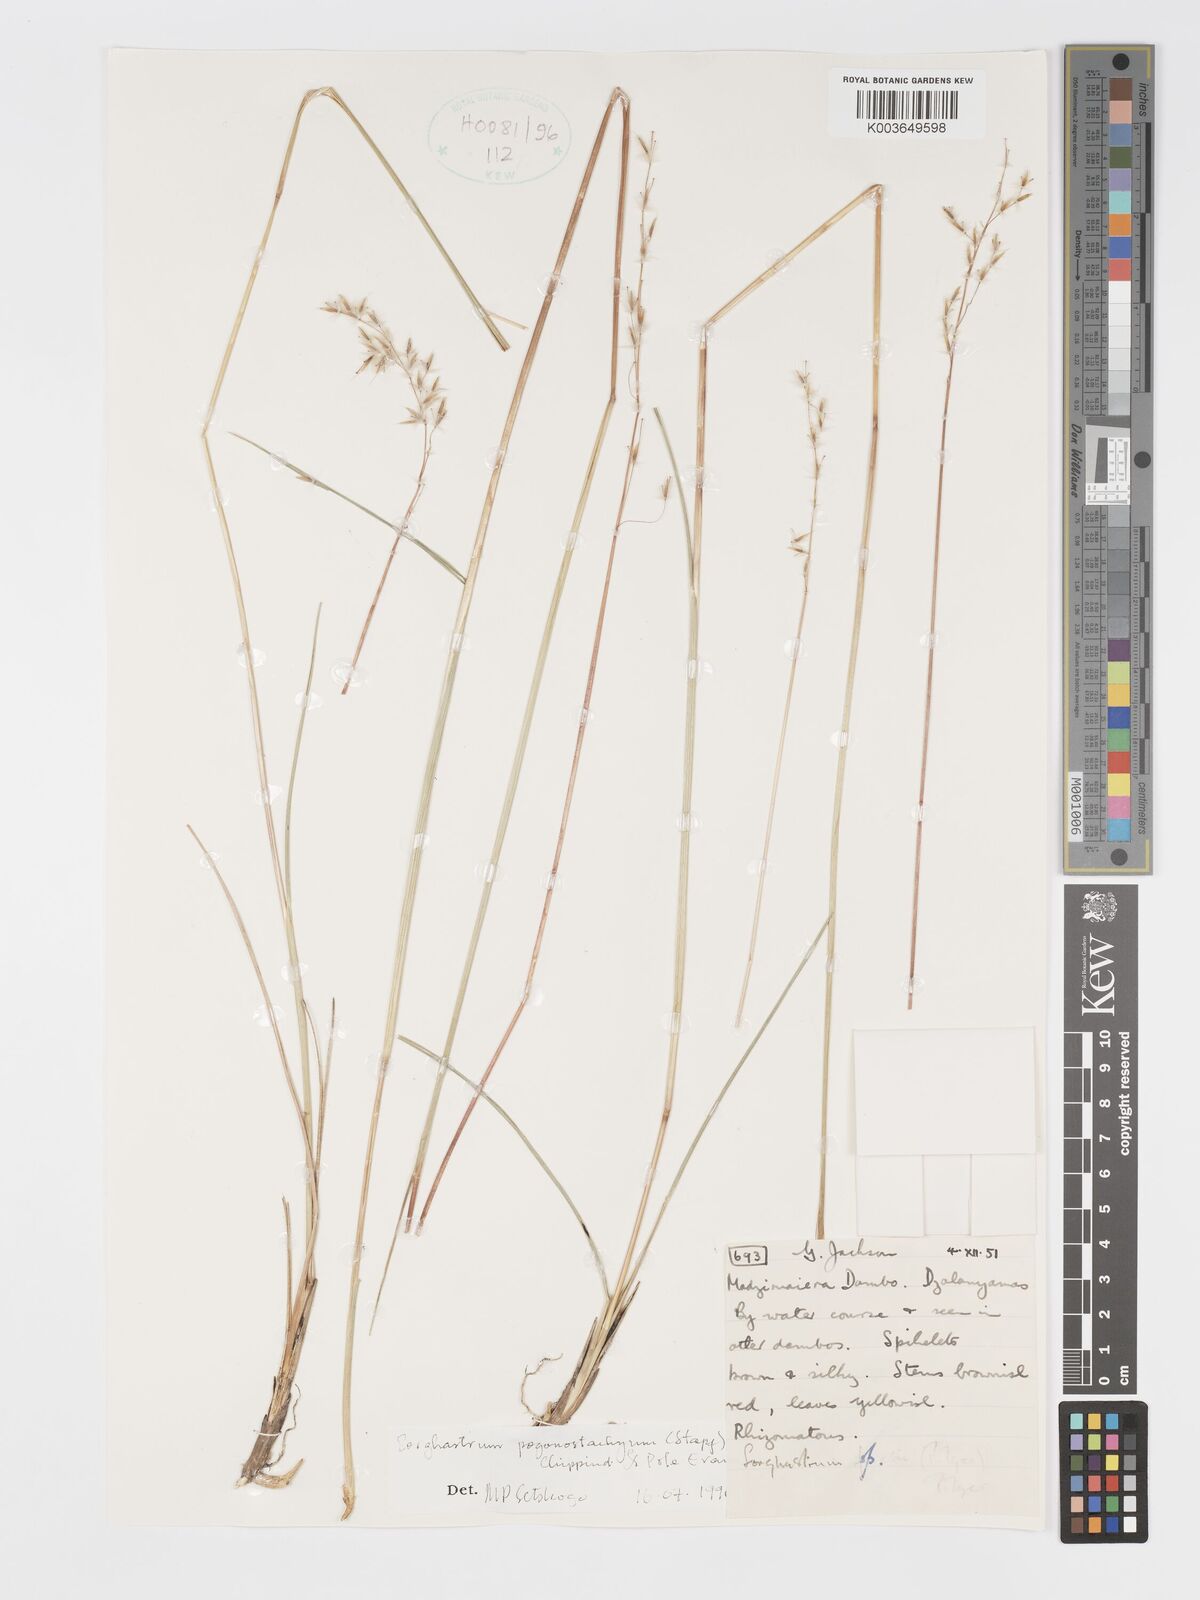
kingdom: Plantae
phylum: Tracheophyta
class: Liliopsida
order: Poales
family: Poaceae
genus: Sorghastrum
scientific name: Sorghastrum pogonostachyum
